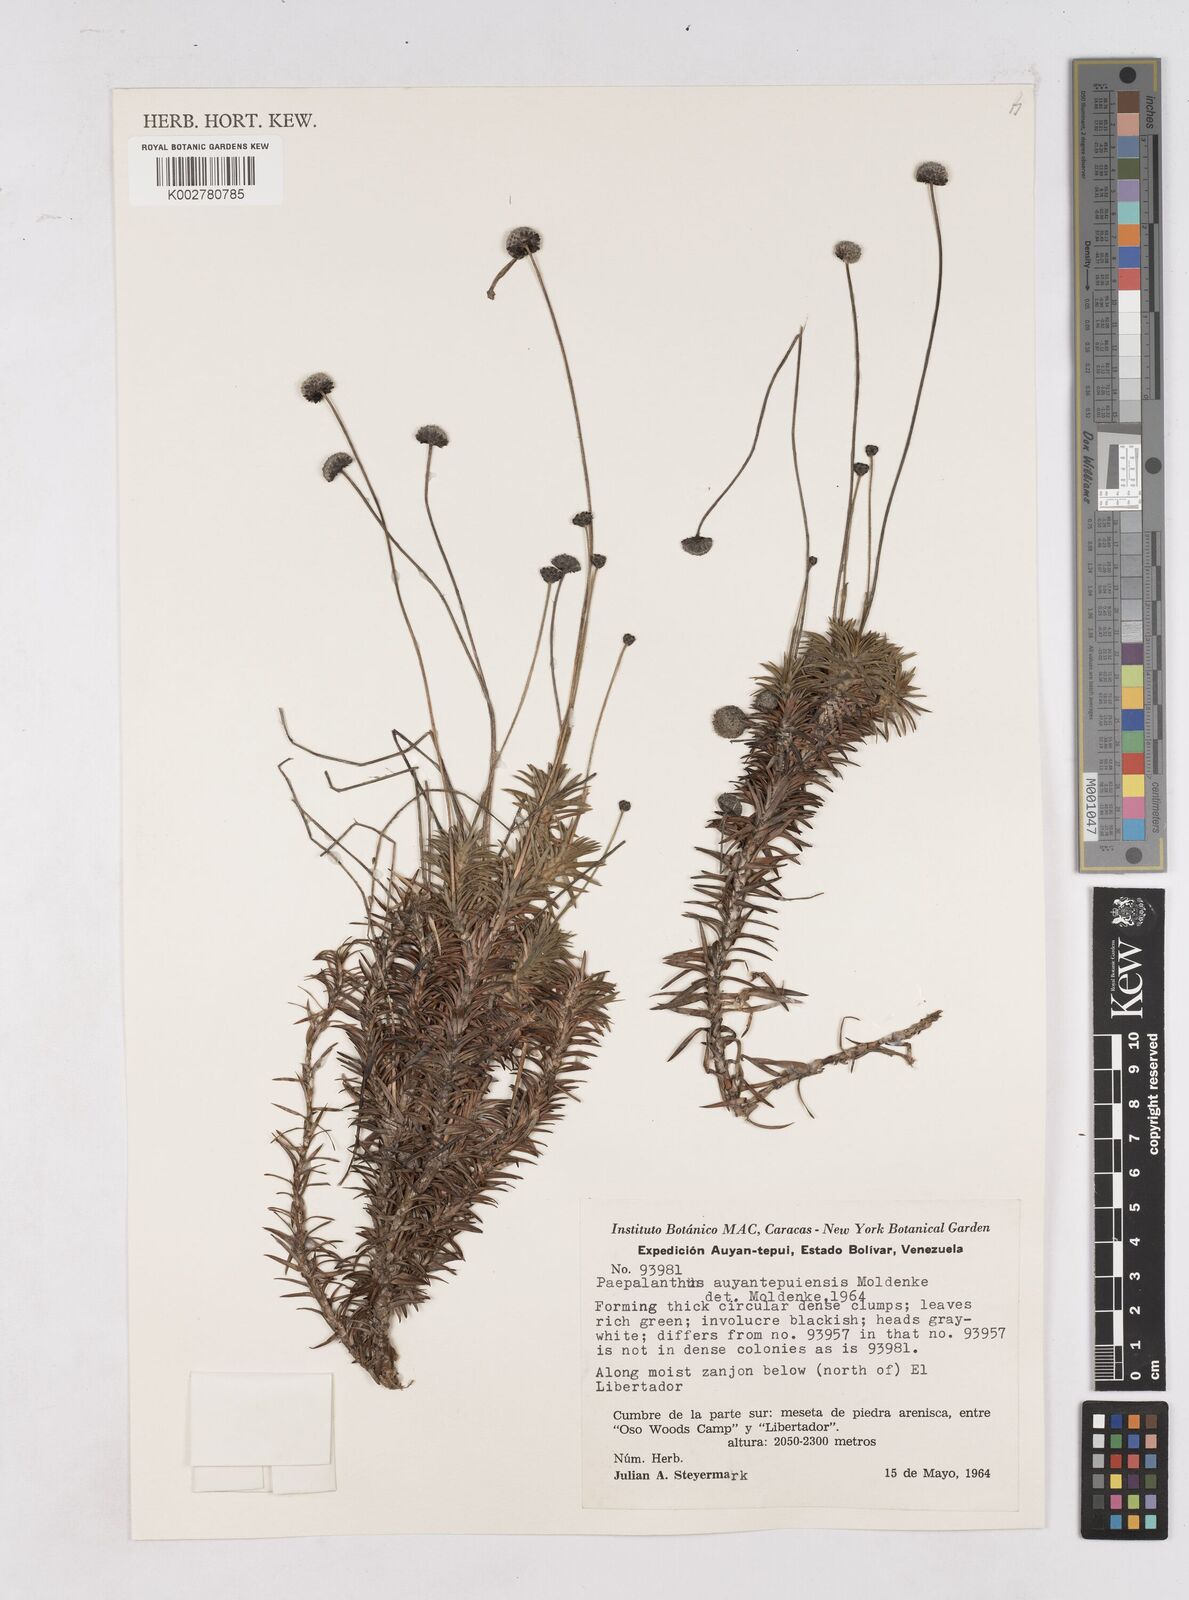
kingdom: Plantae
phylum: Tracheophyta
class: Liliopsida
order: Poales
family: Eriocaulaceae
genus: Paepalanthus
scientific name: Paepalanthus auyantepuiensis
